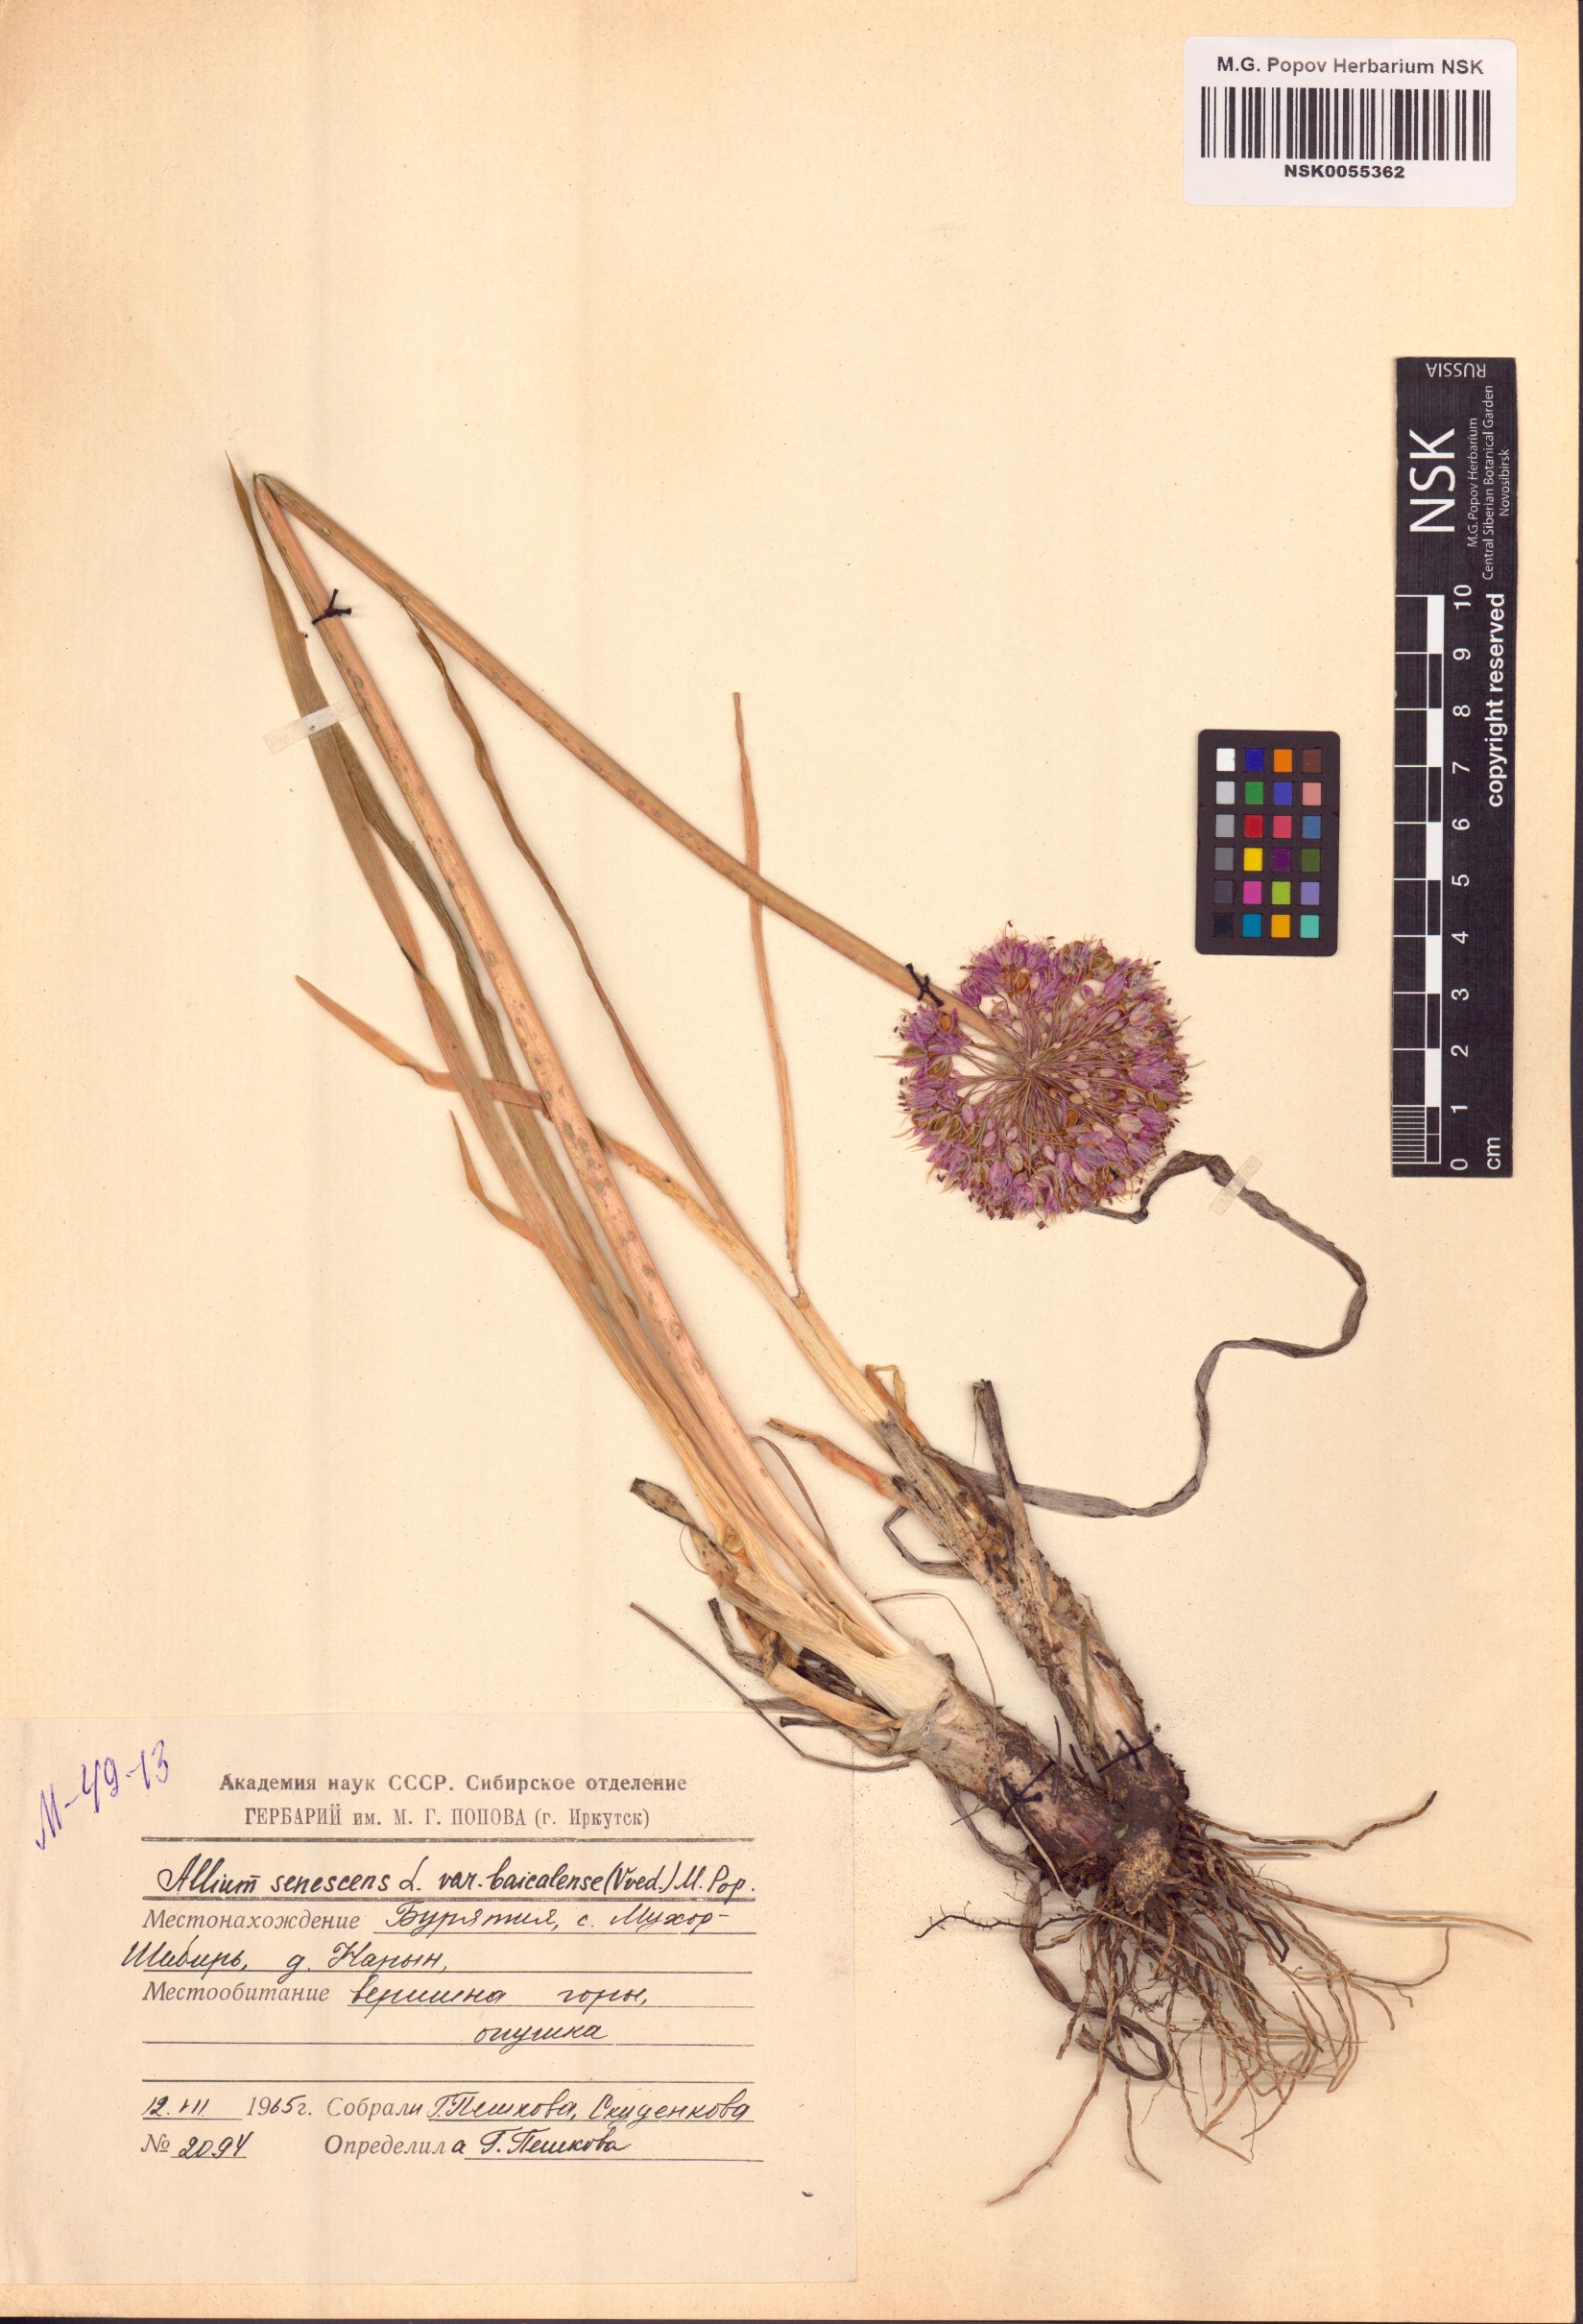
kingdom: Plantae
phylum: Tracheophyta
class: Liliopsida
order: Asparagales
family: Amaryllidaceae
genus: Allium
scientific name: Allium senescens
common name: German garlic
